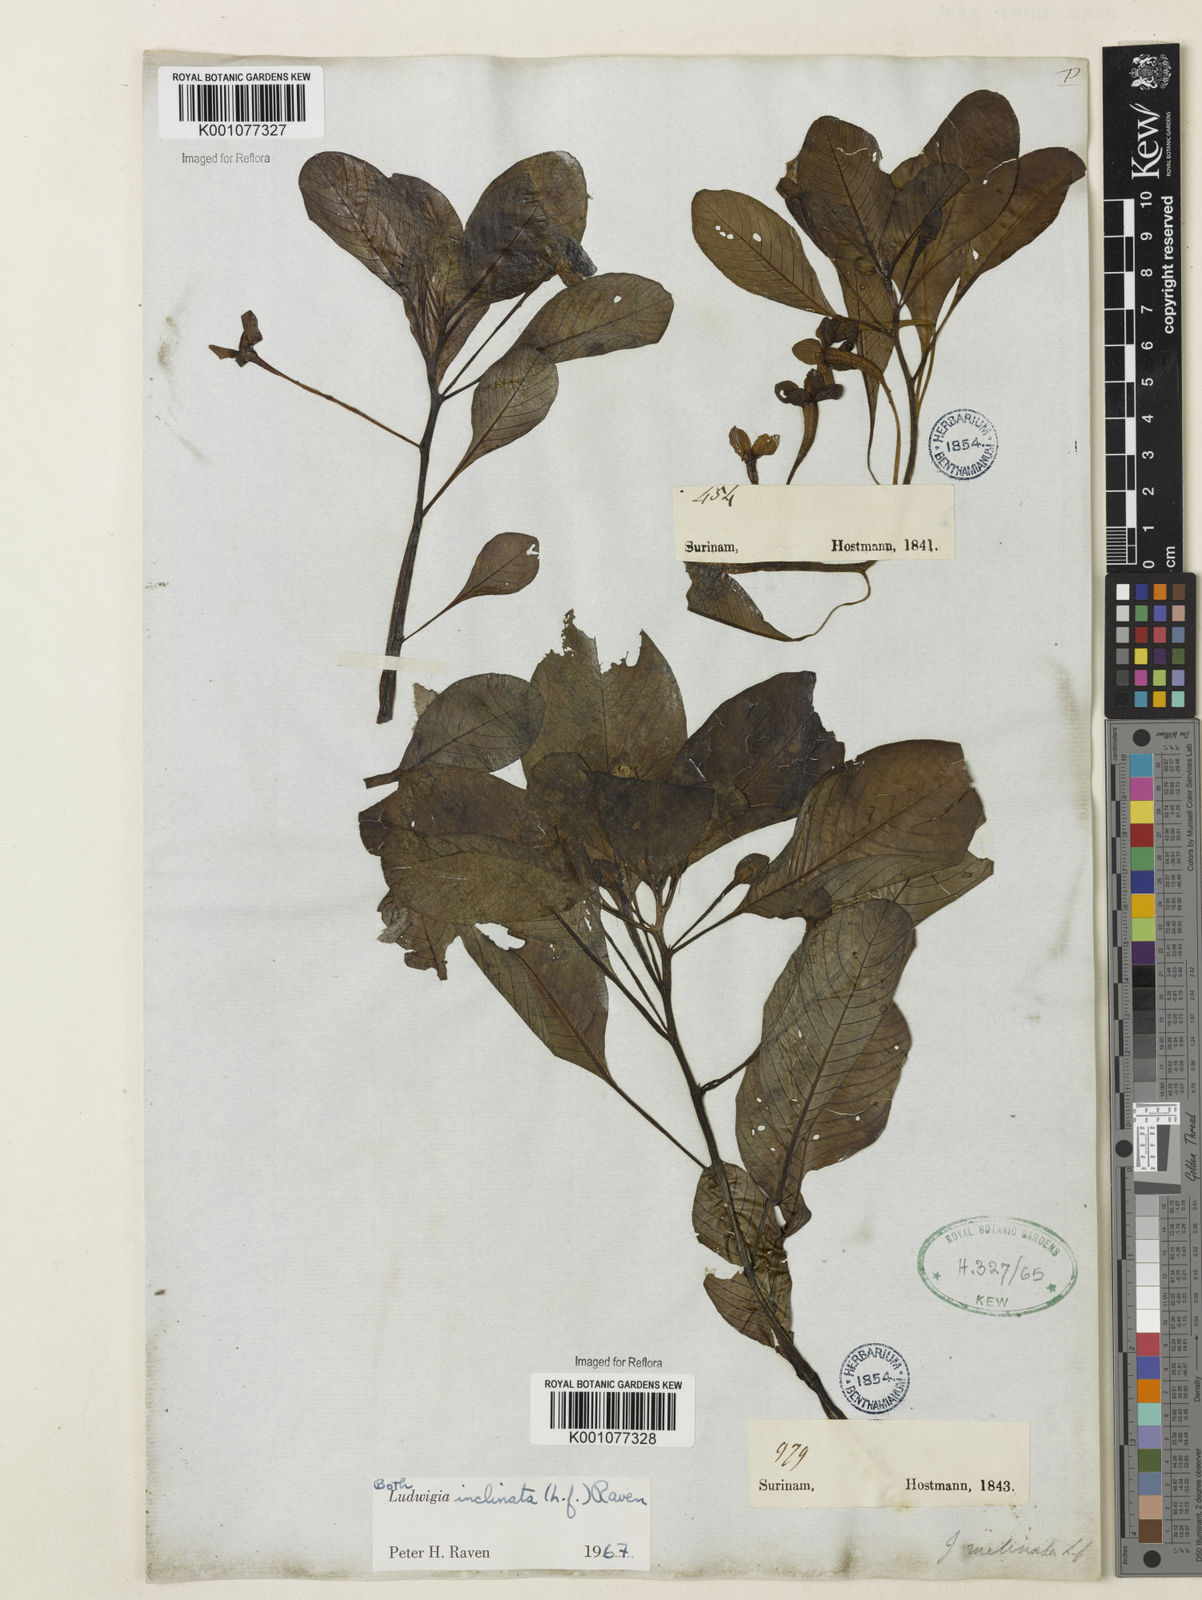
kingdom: Plantae
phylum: Tracheophyta
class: Magnoliopsida
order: Myrtales
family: Onagraceae
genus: Ludwigia
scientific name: Ludwigia potamogeton
